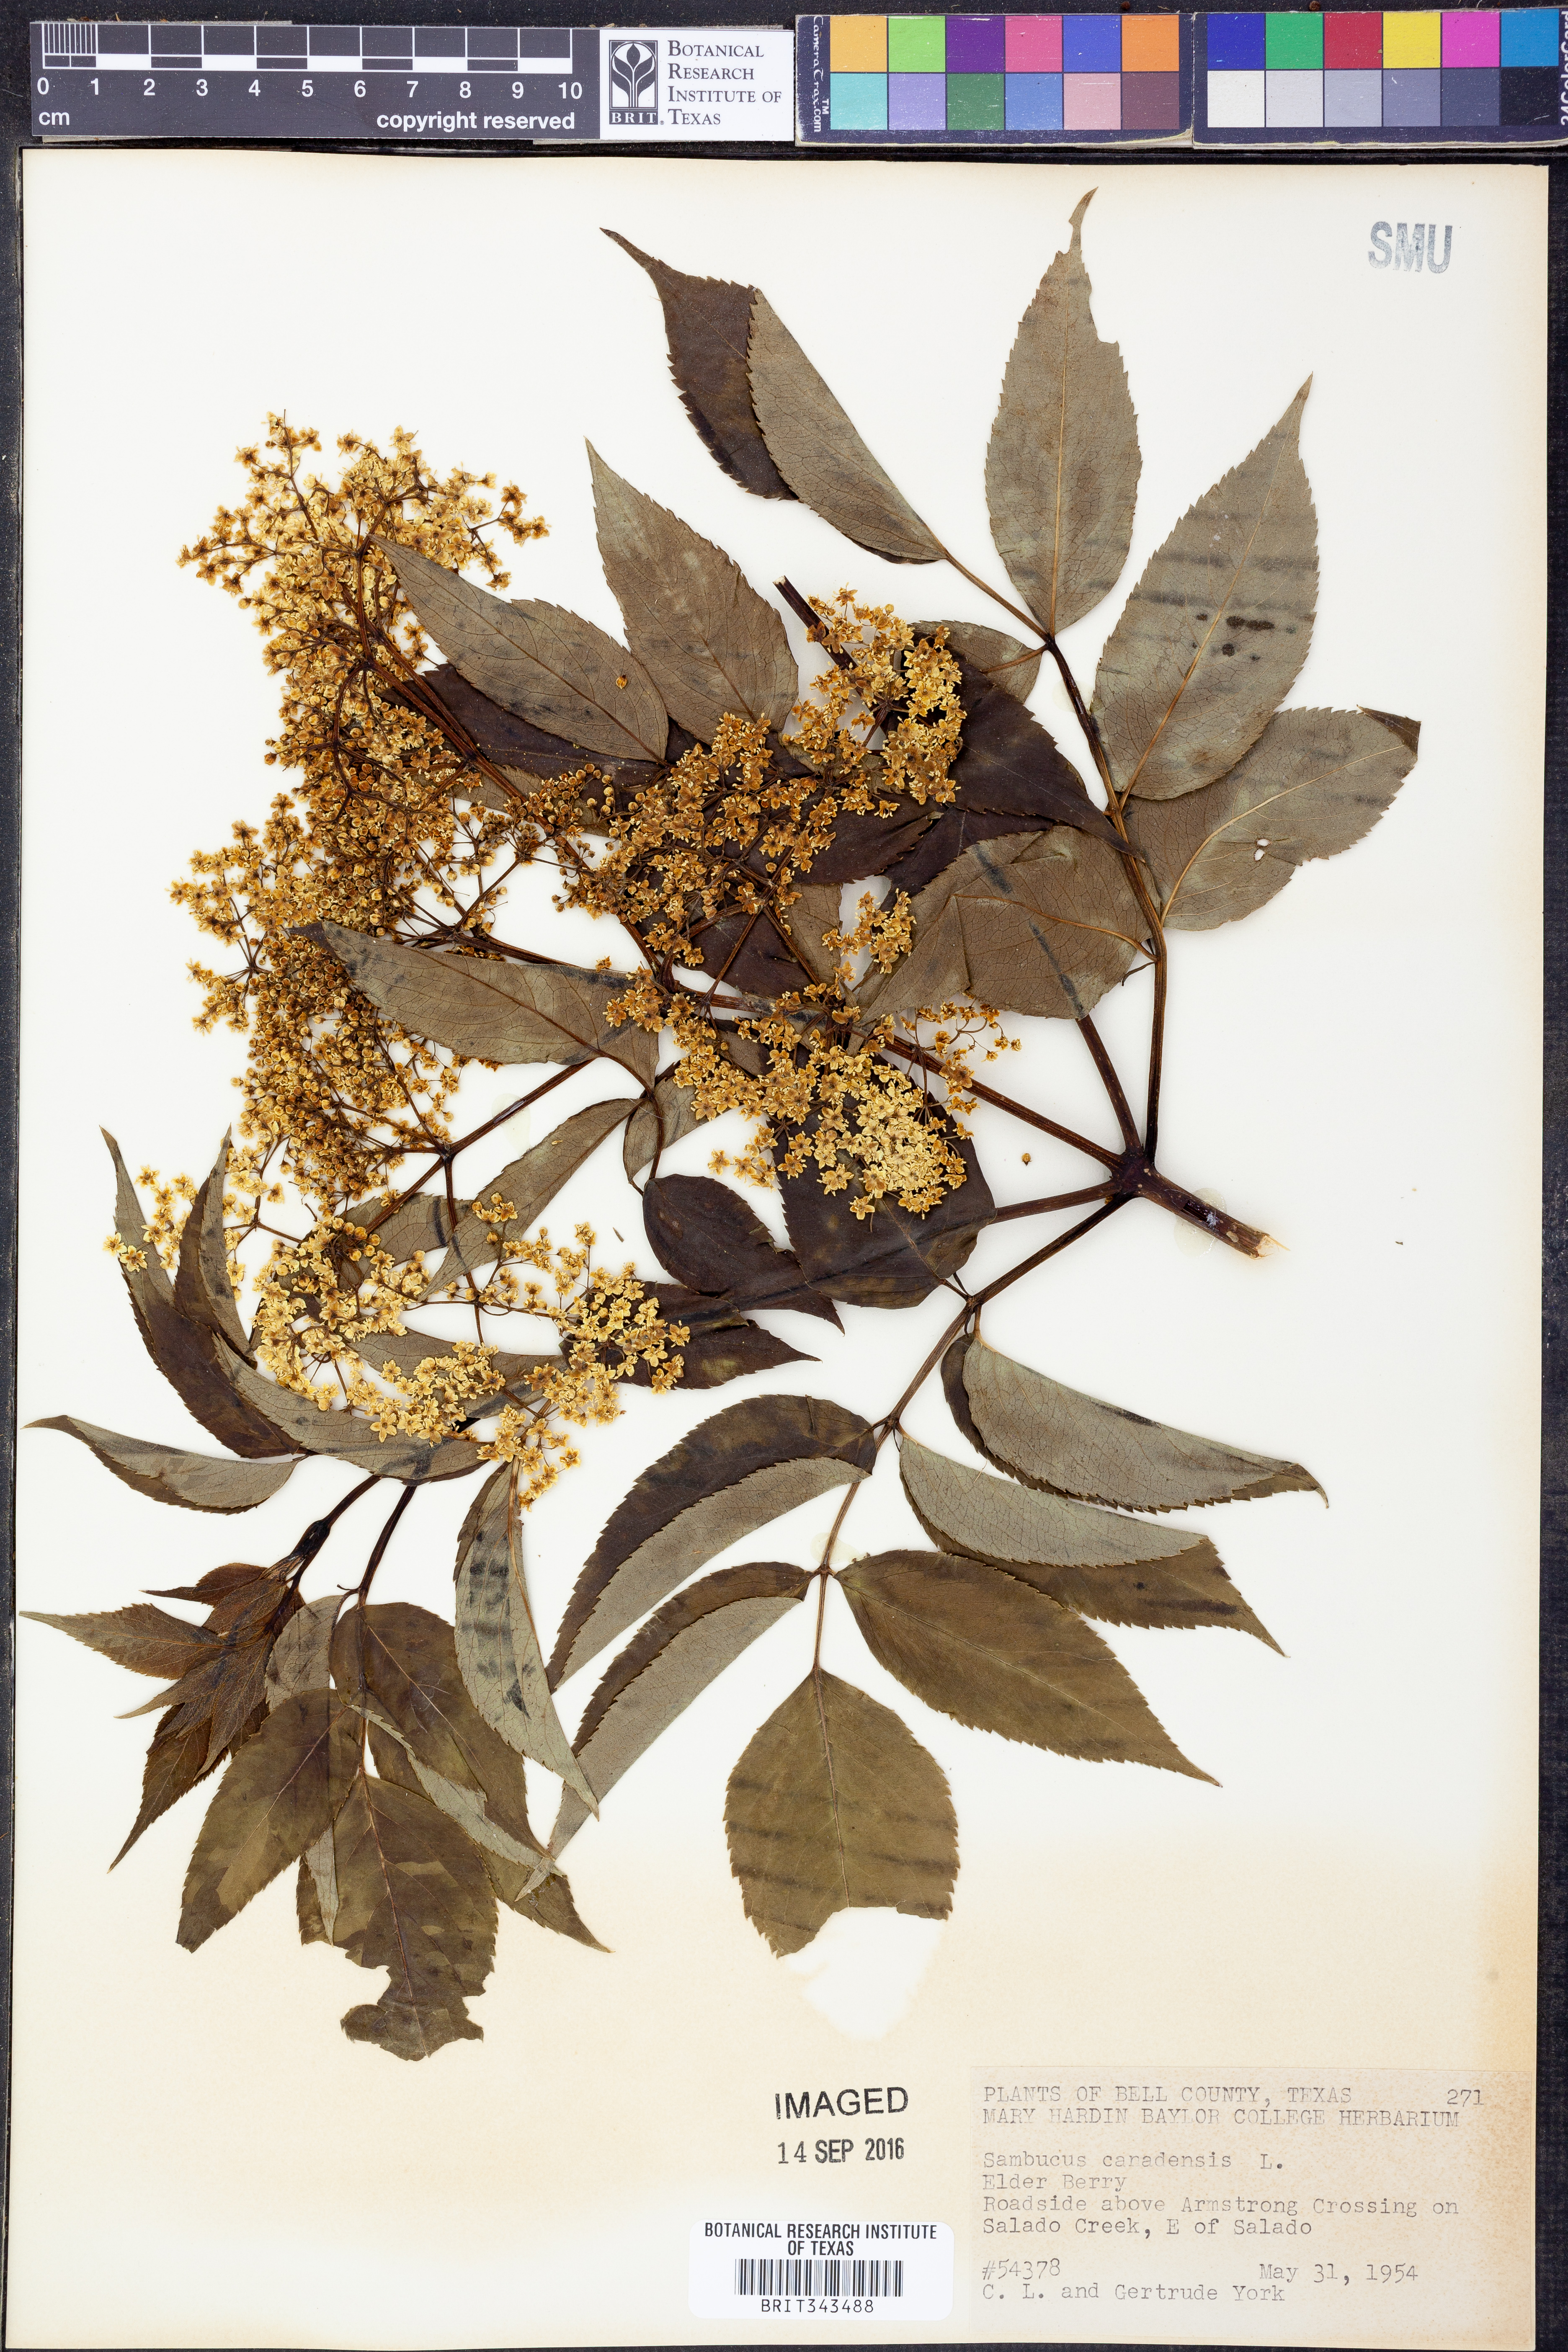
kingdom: Plantae
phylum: Tracheophyta
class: Magnoliopsida
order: Dipsacales
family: Viburnaceae
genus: Sambucus
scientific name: Sambucus canadensis
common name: American elder
